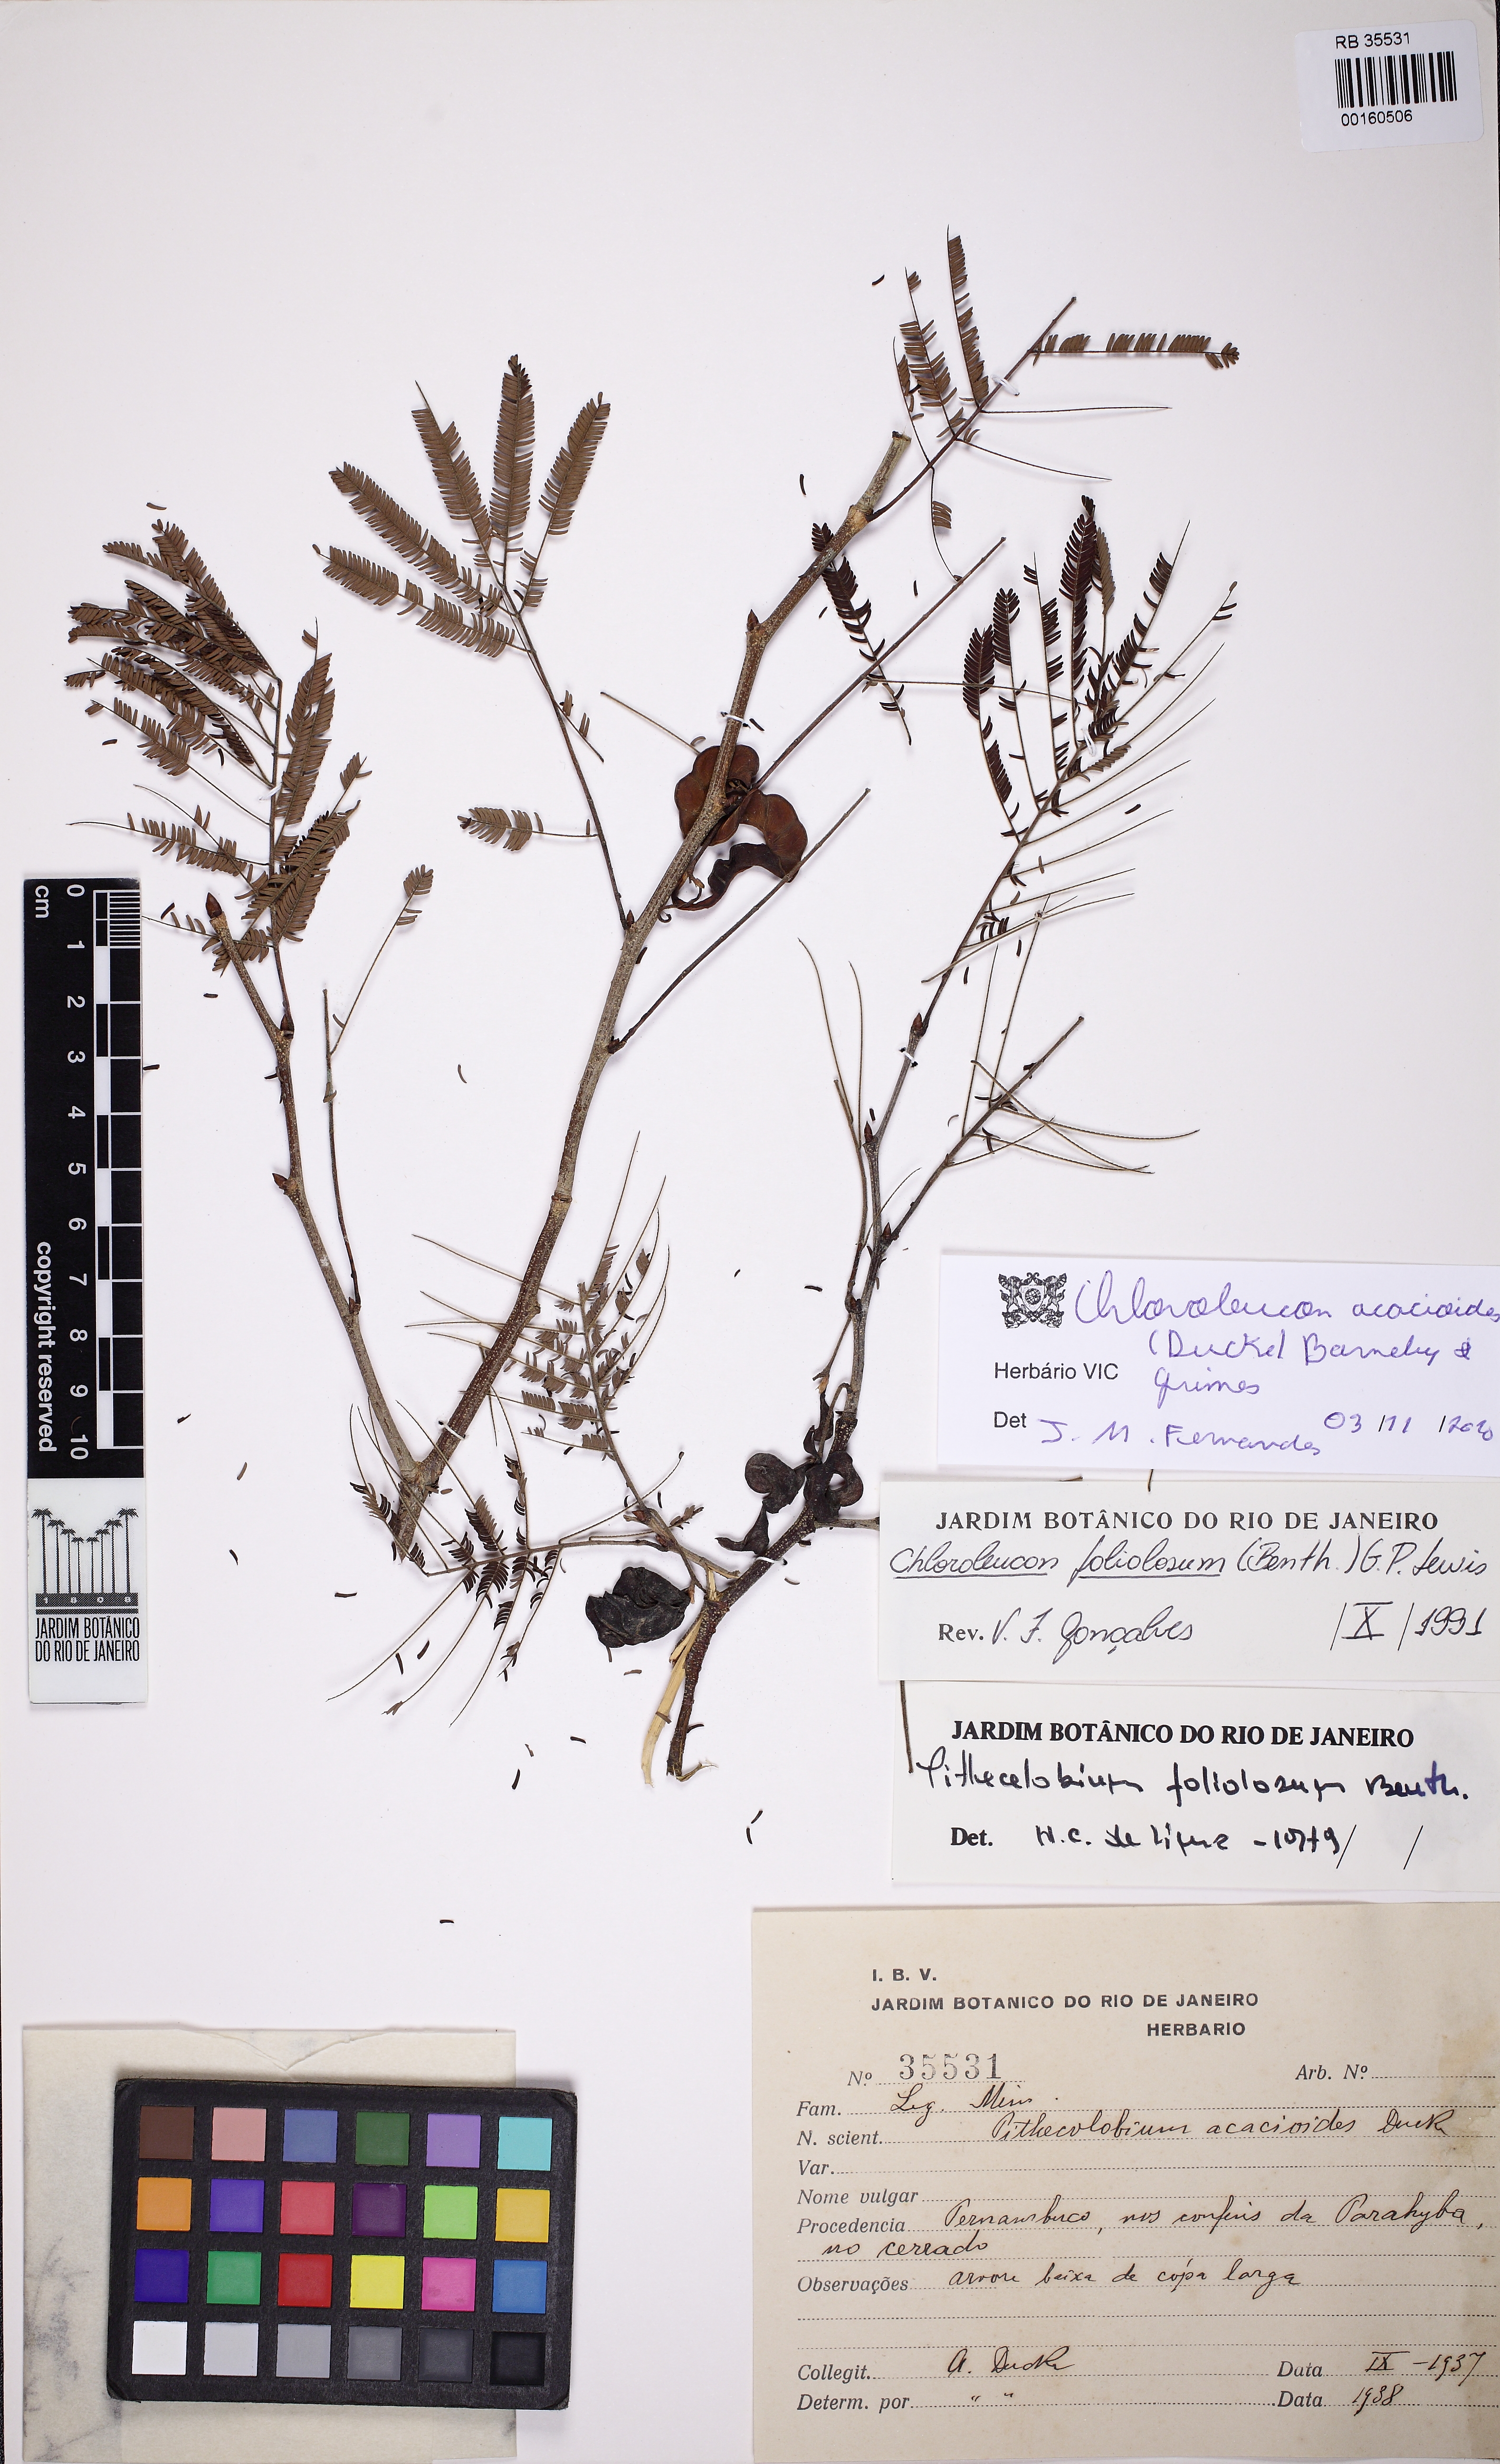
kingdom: Plantae
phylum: Tracheophyta
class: Magnoliopsida
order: Fabales
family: Fabaceae
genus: Chloroleucon
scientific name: Chloroleucon acacioides
